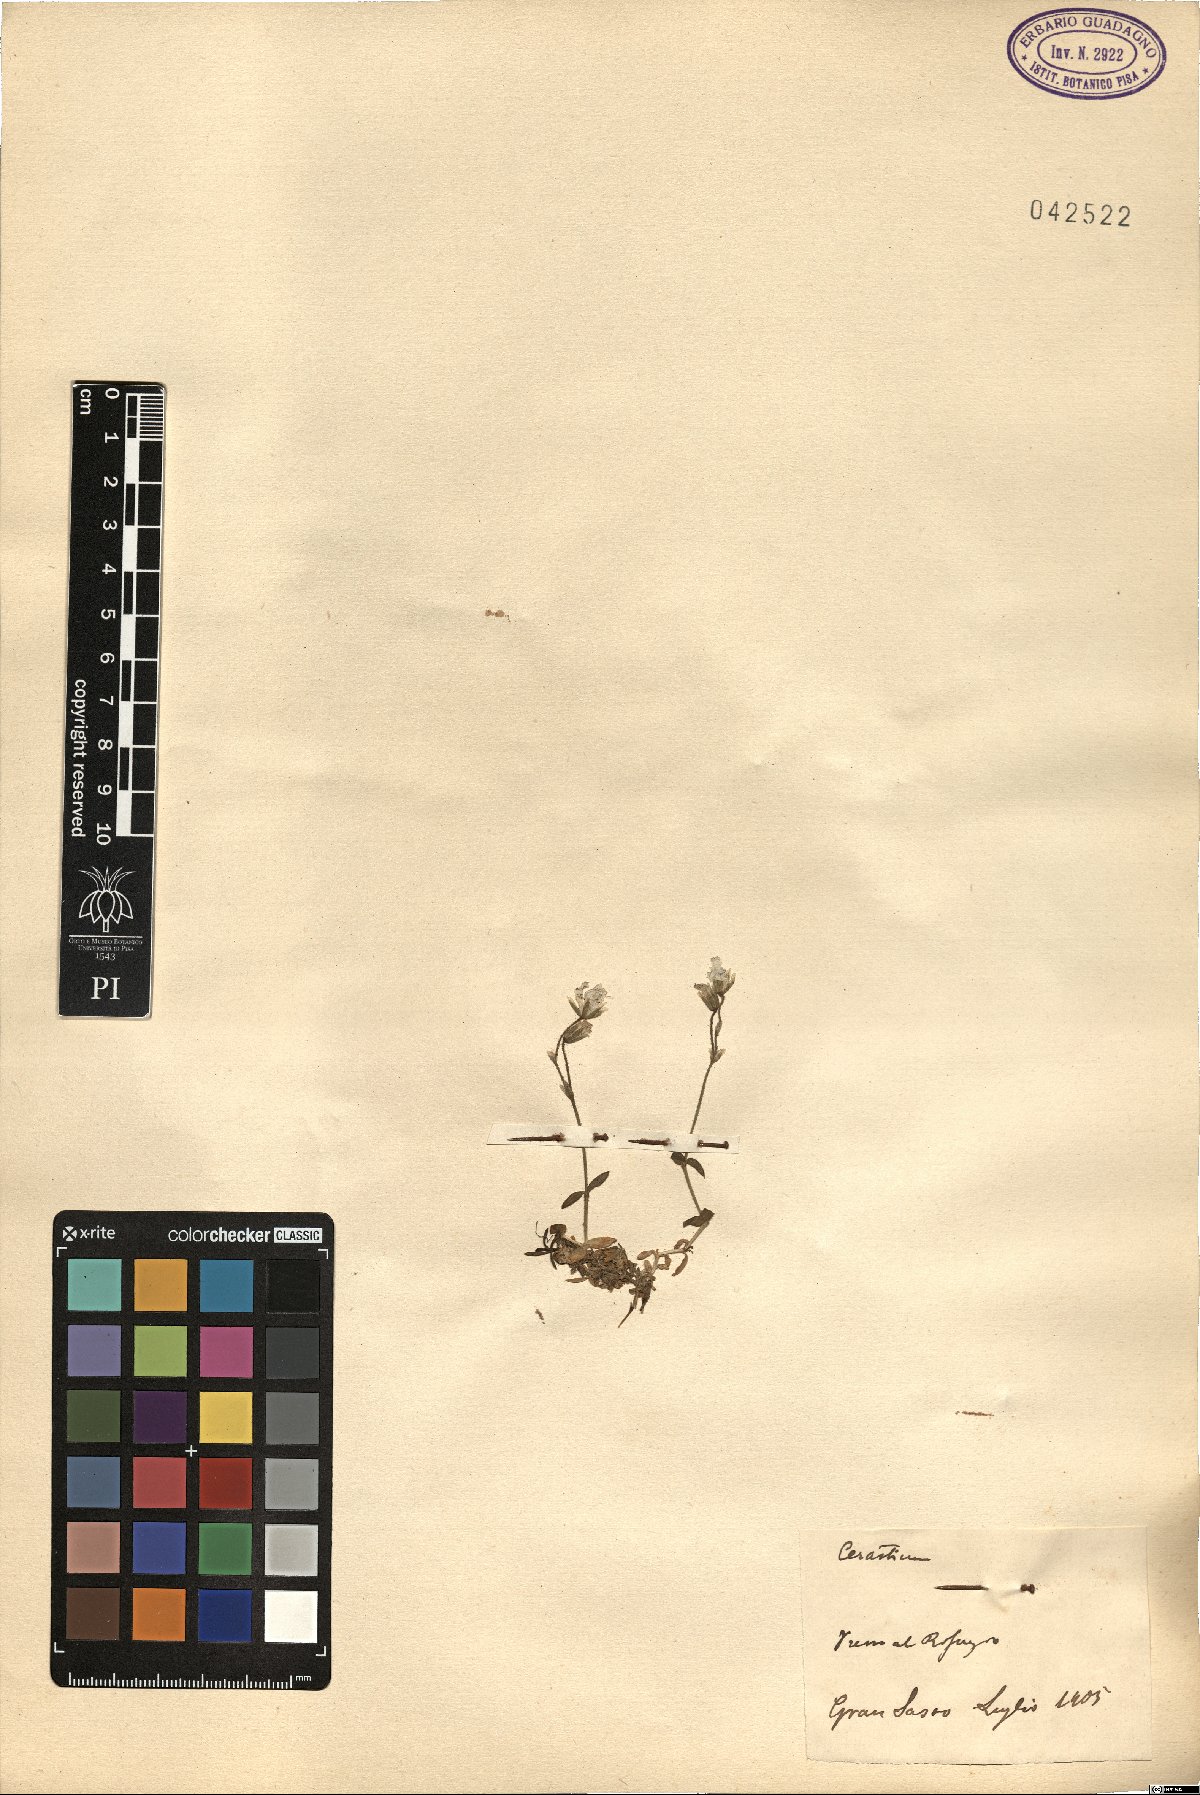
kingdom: Plantae
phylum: Tracheophyta
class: Magnoliopsida
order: Caryophyllales
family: Caryophyllaceae
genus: Cerastium
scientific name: Cerastium
